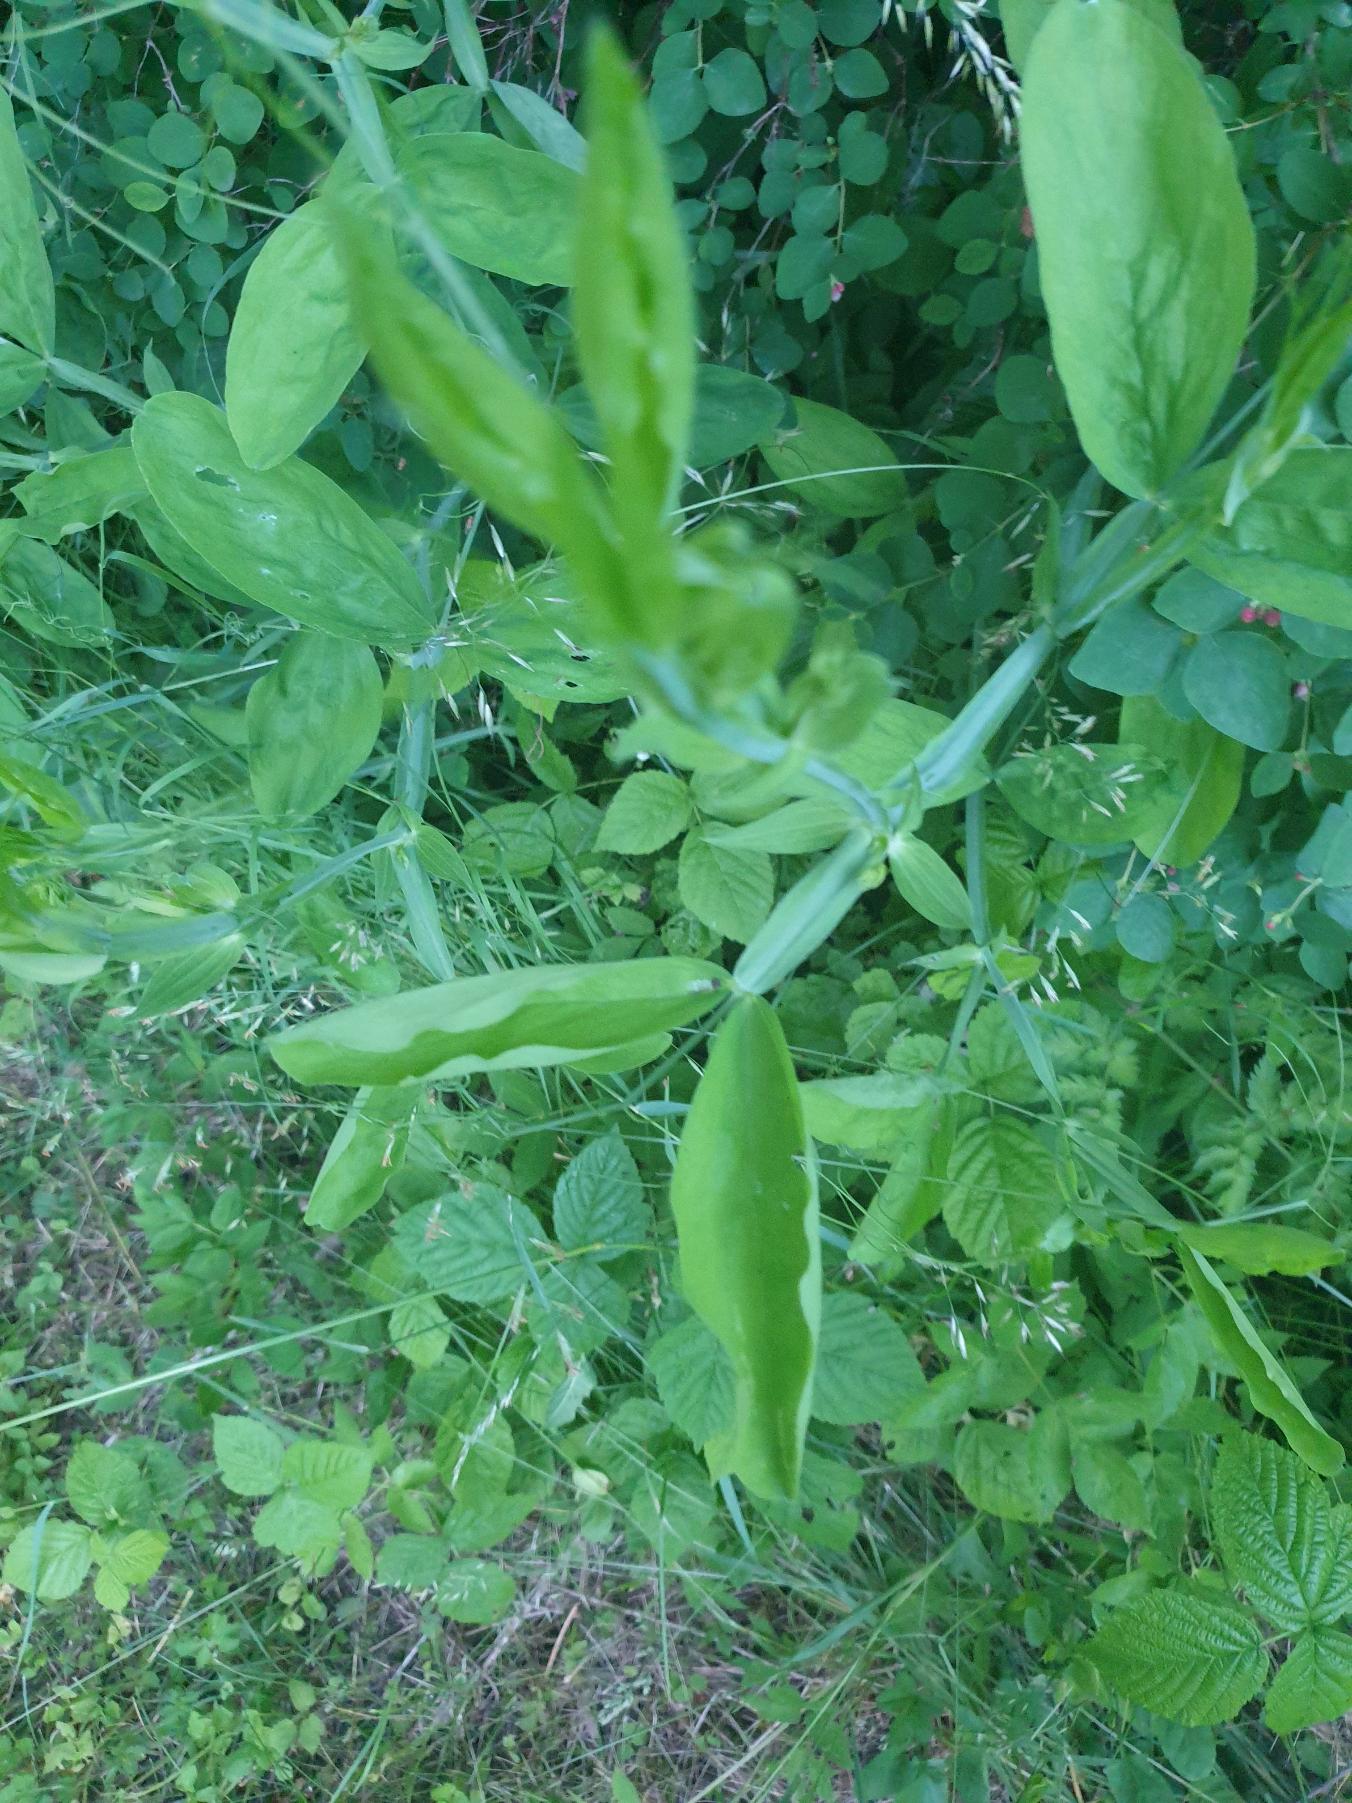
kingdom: Plantae
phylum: Tracheophyta
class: Magnoliopsida
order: Fabales
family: Fabaceae
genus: Lathyrus
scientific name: Lathyrus latifolius
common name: Flerårig ærteblomst
